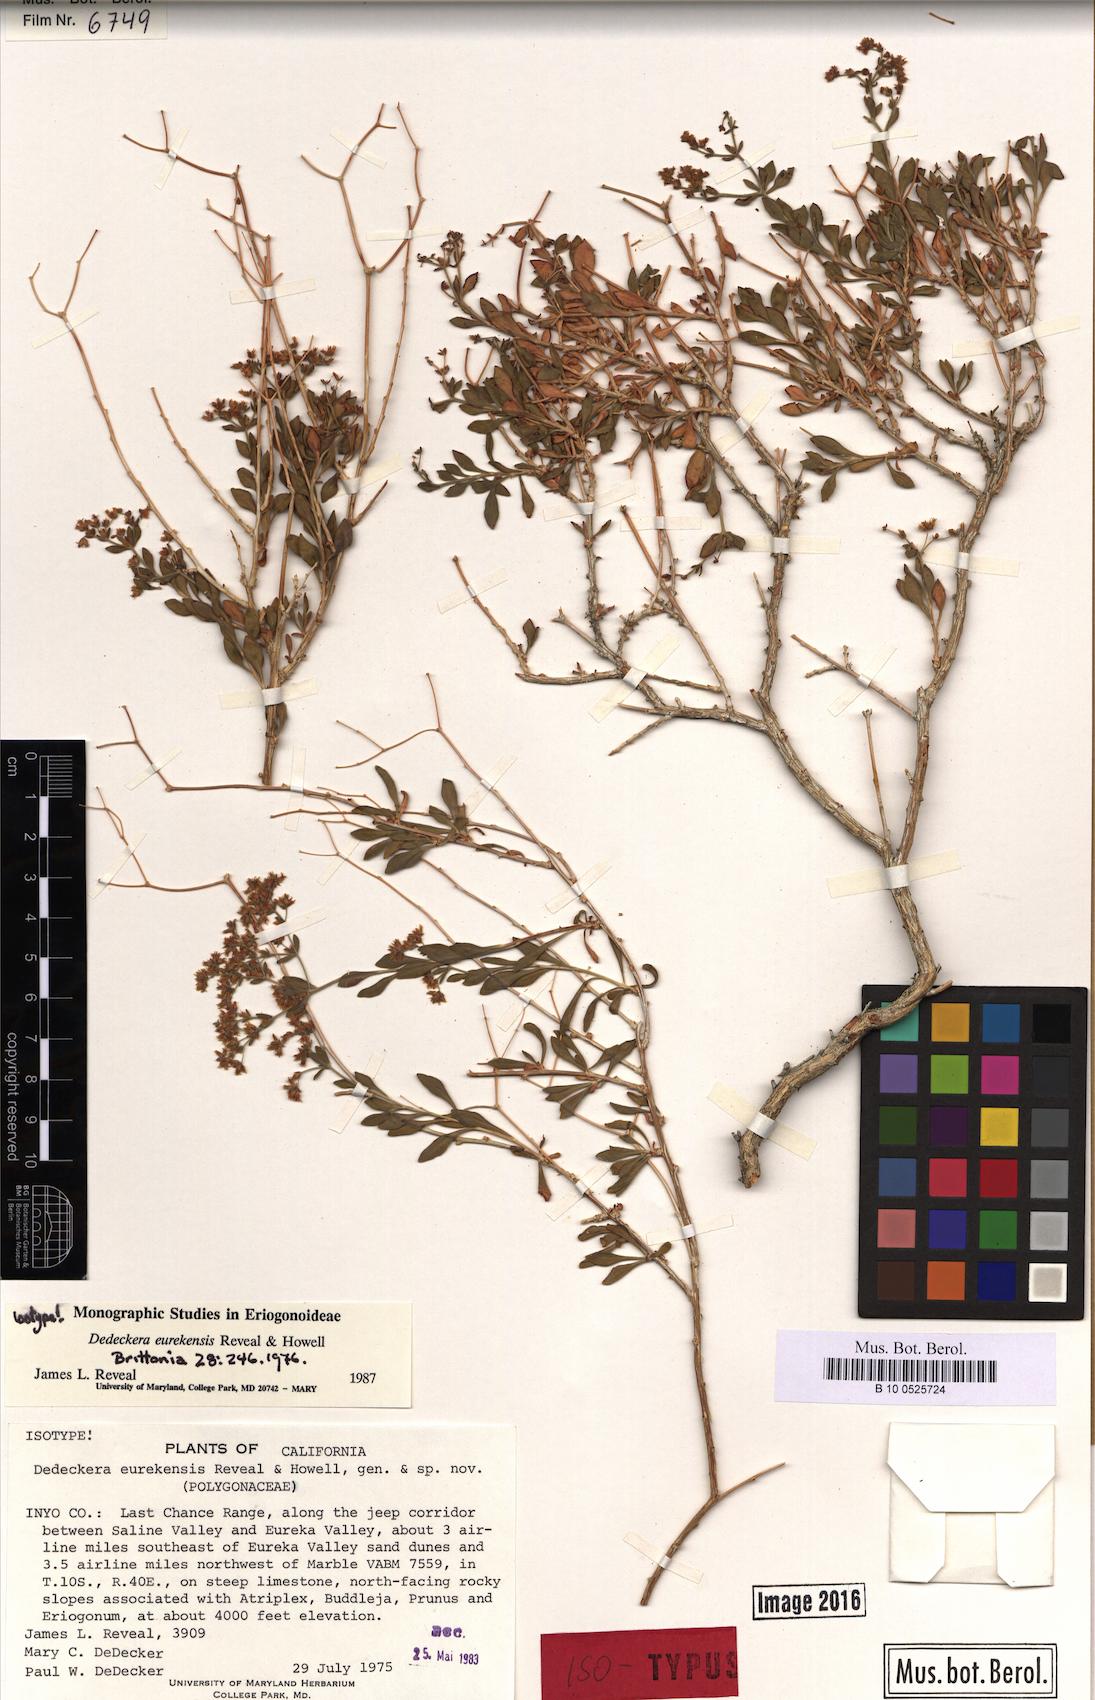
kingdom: Plantae
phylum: Tracheophyta
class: Magnoliopsida
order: Caryophyllales
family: Polygonaceae
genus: Dedeckera
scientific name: Dedeckera eurekensis
